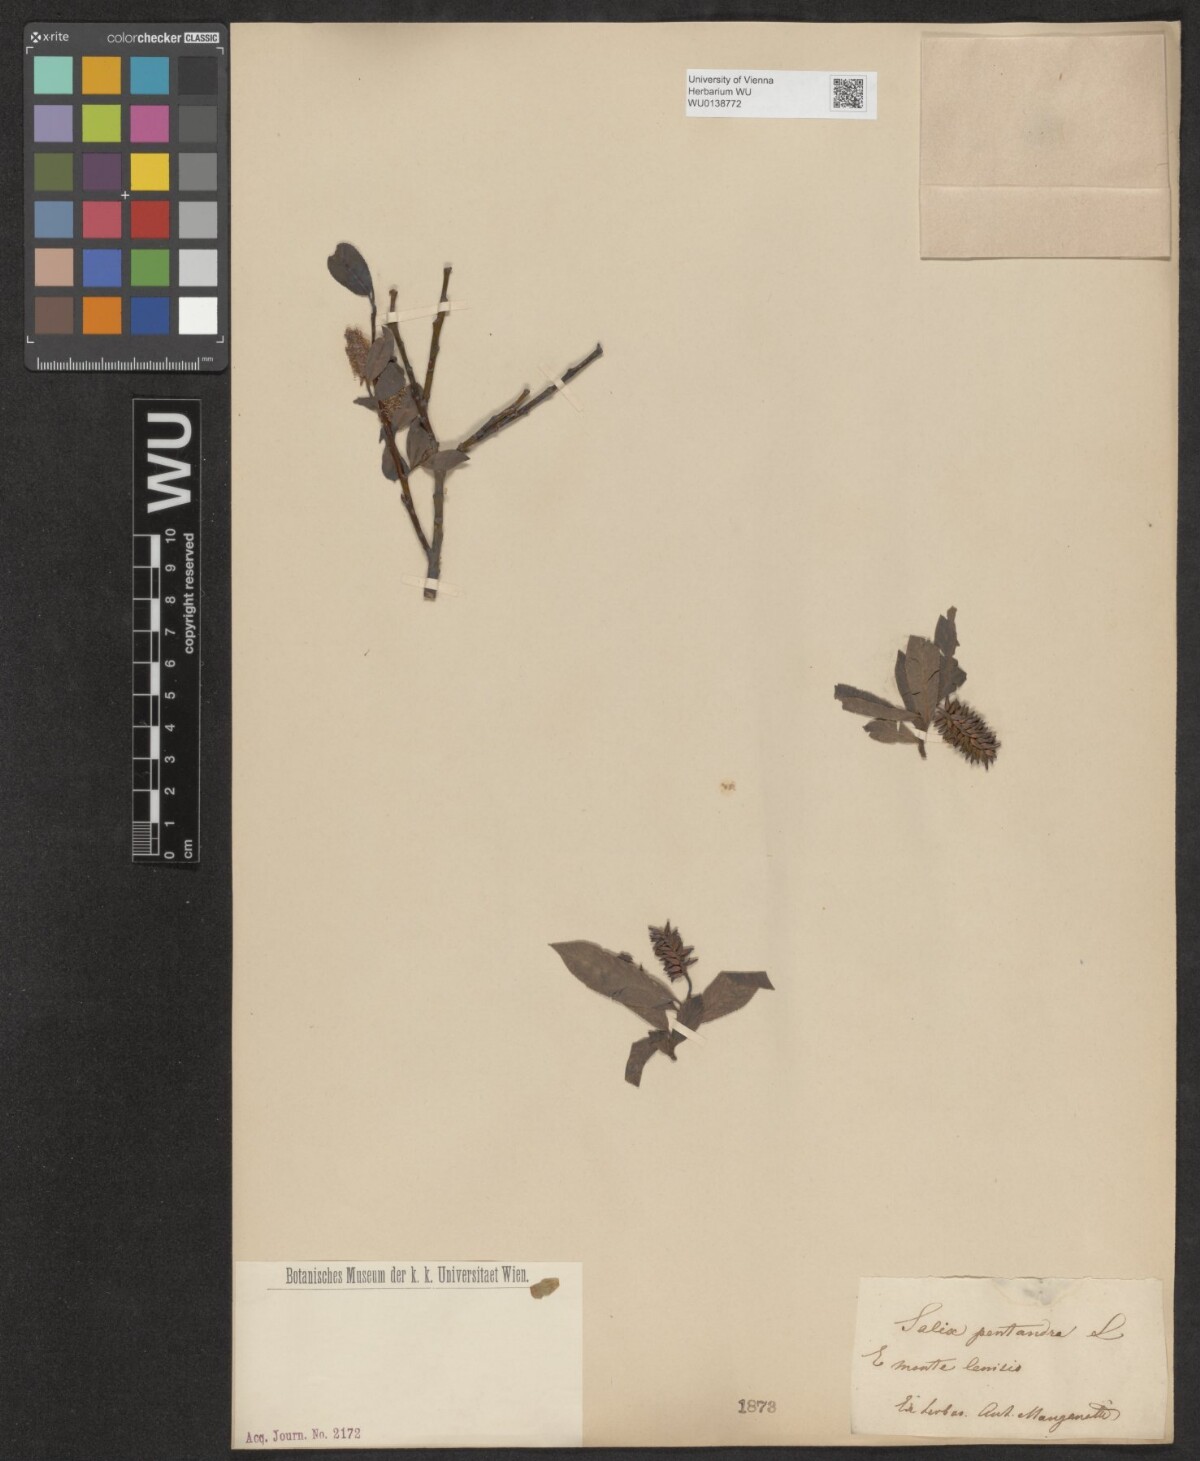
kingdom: Plantae
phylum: Tracheophyta
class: Magnoliopsida
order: Malpighiales
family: Salicaceae
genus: Salix
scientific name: Salix pentandra
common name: Bay willow
